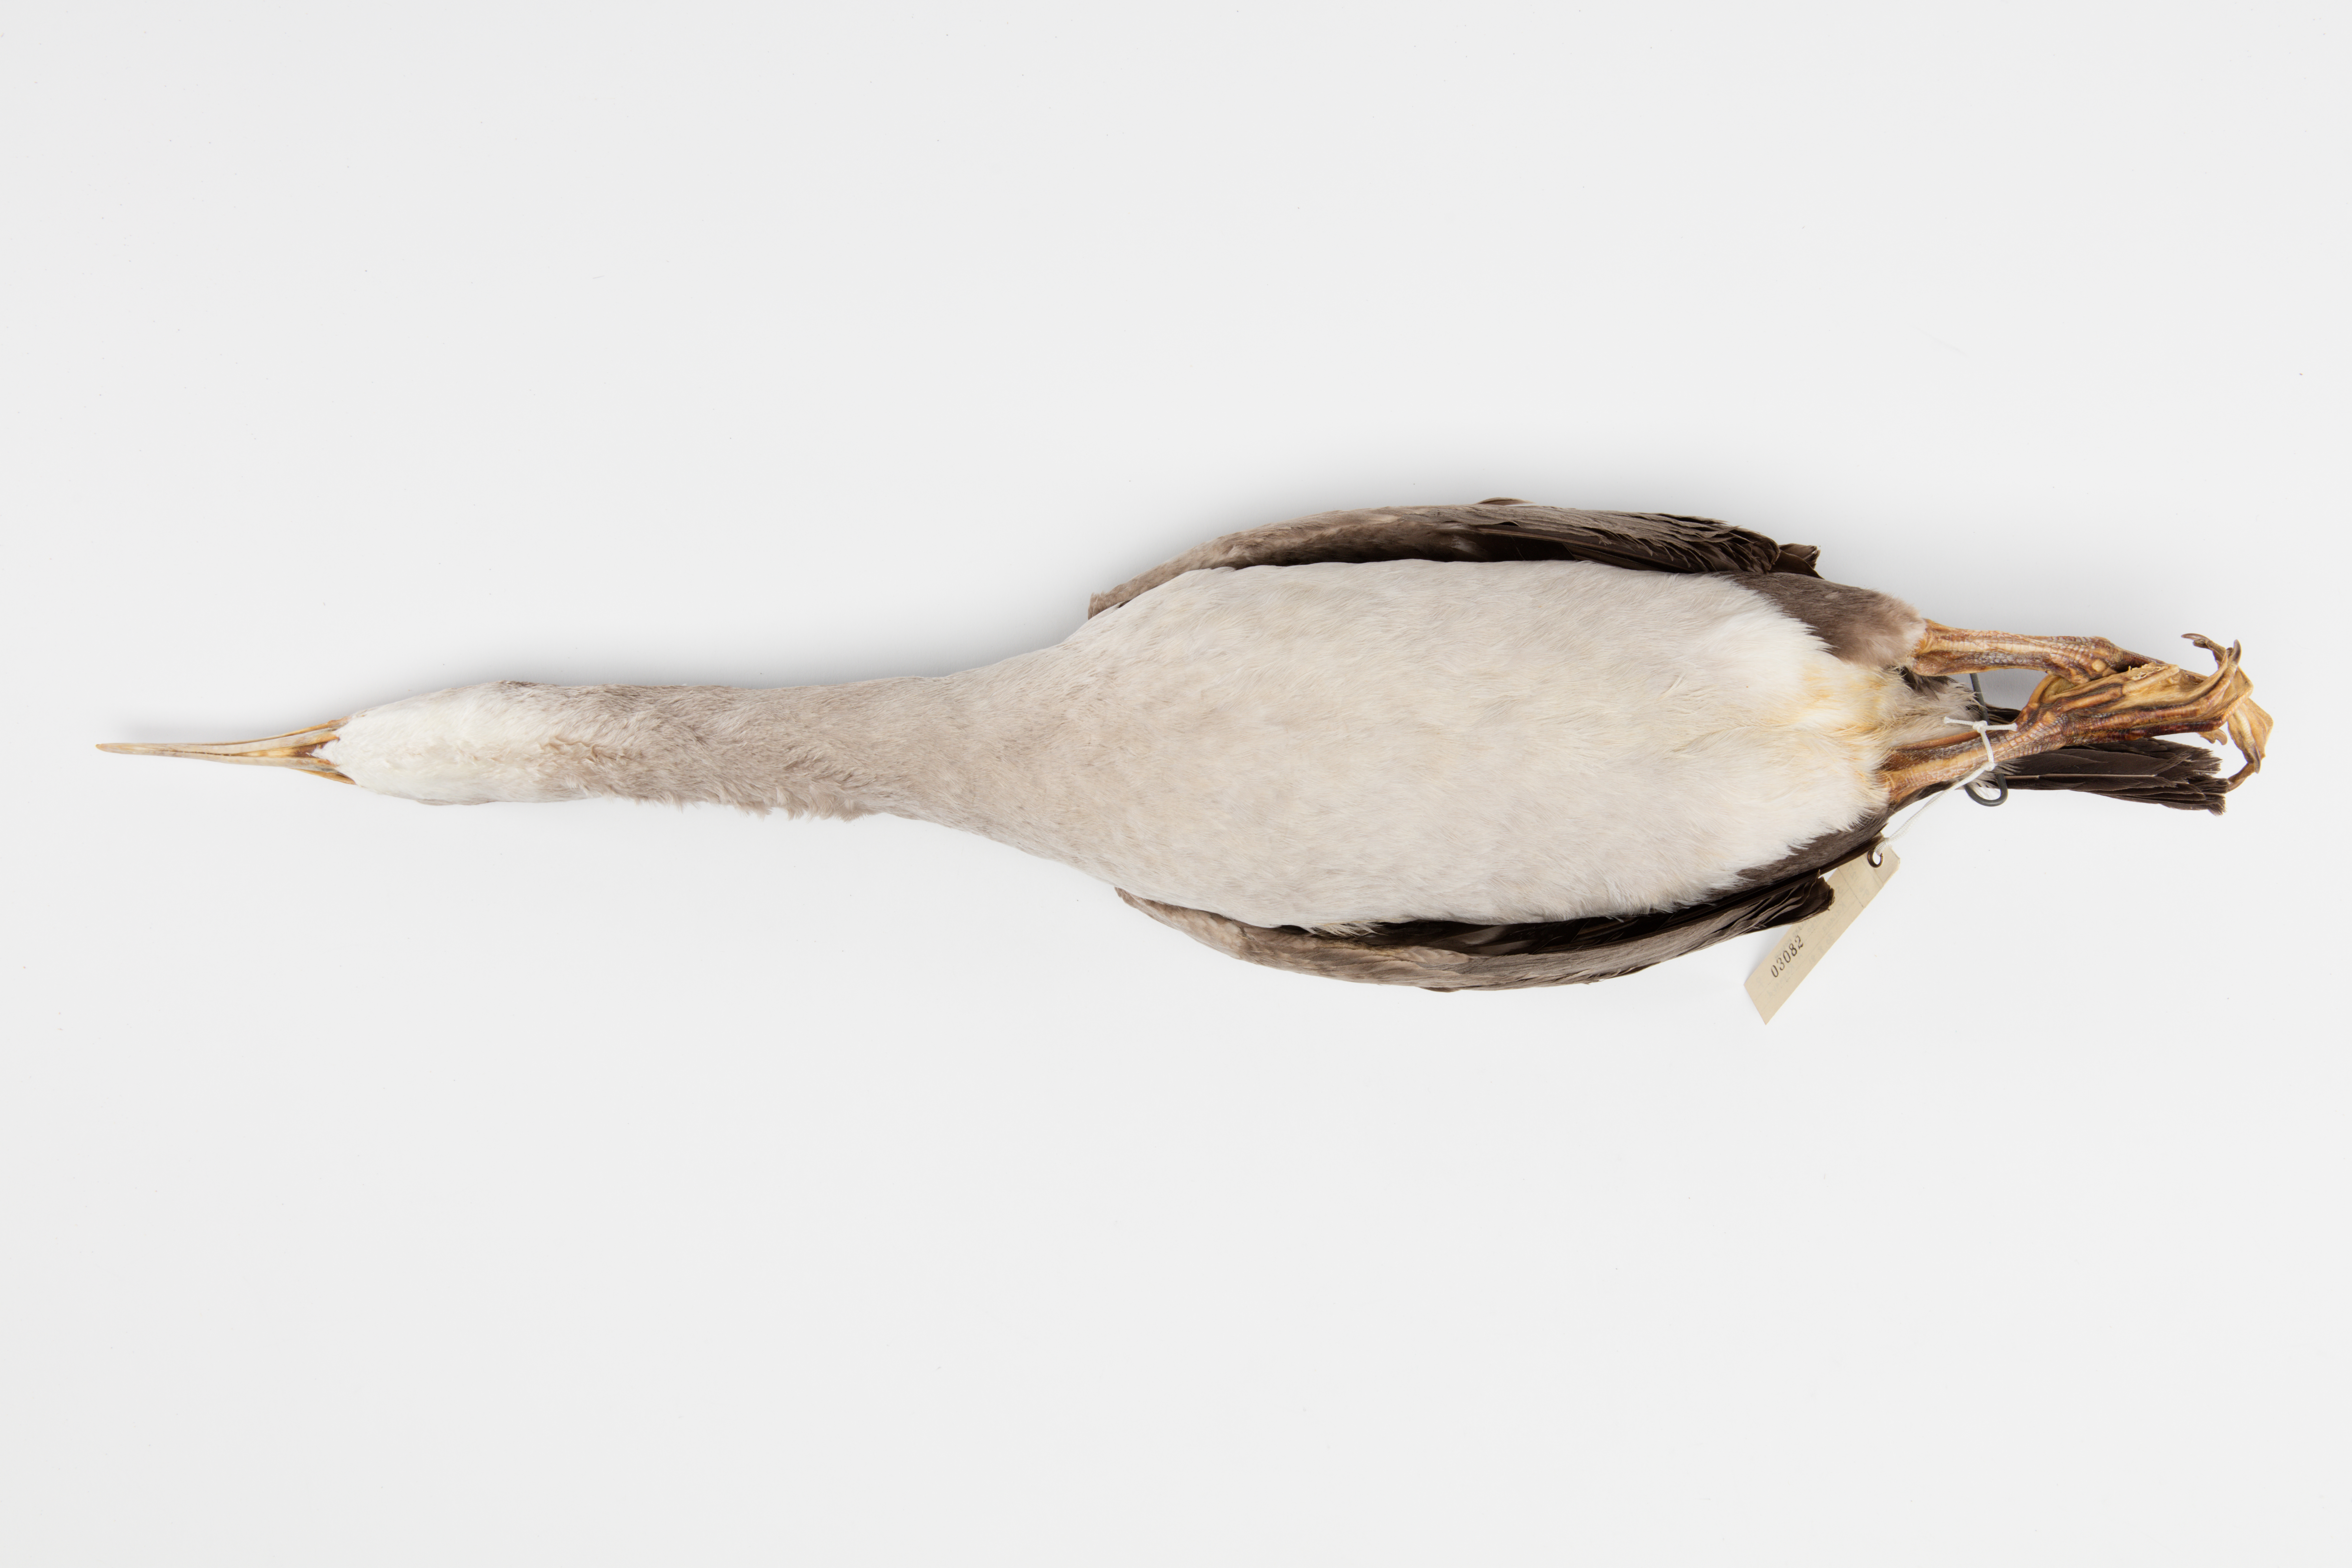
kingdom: Animalia
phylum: Chordata
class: Aves
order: Suliformes
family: Phalacrocoracidae
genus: Phalacrocorax
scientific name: Phalacrocorax punctatus
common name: Spotted shag
